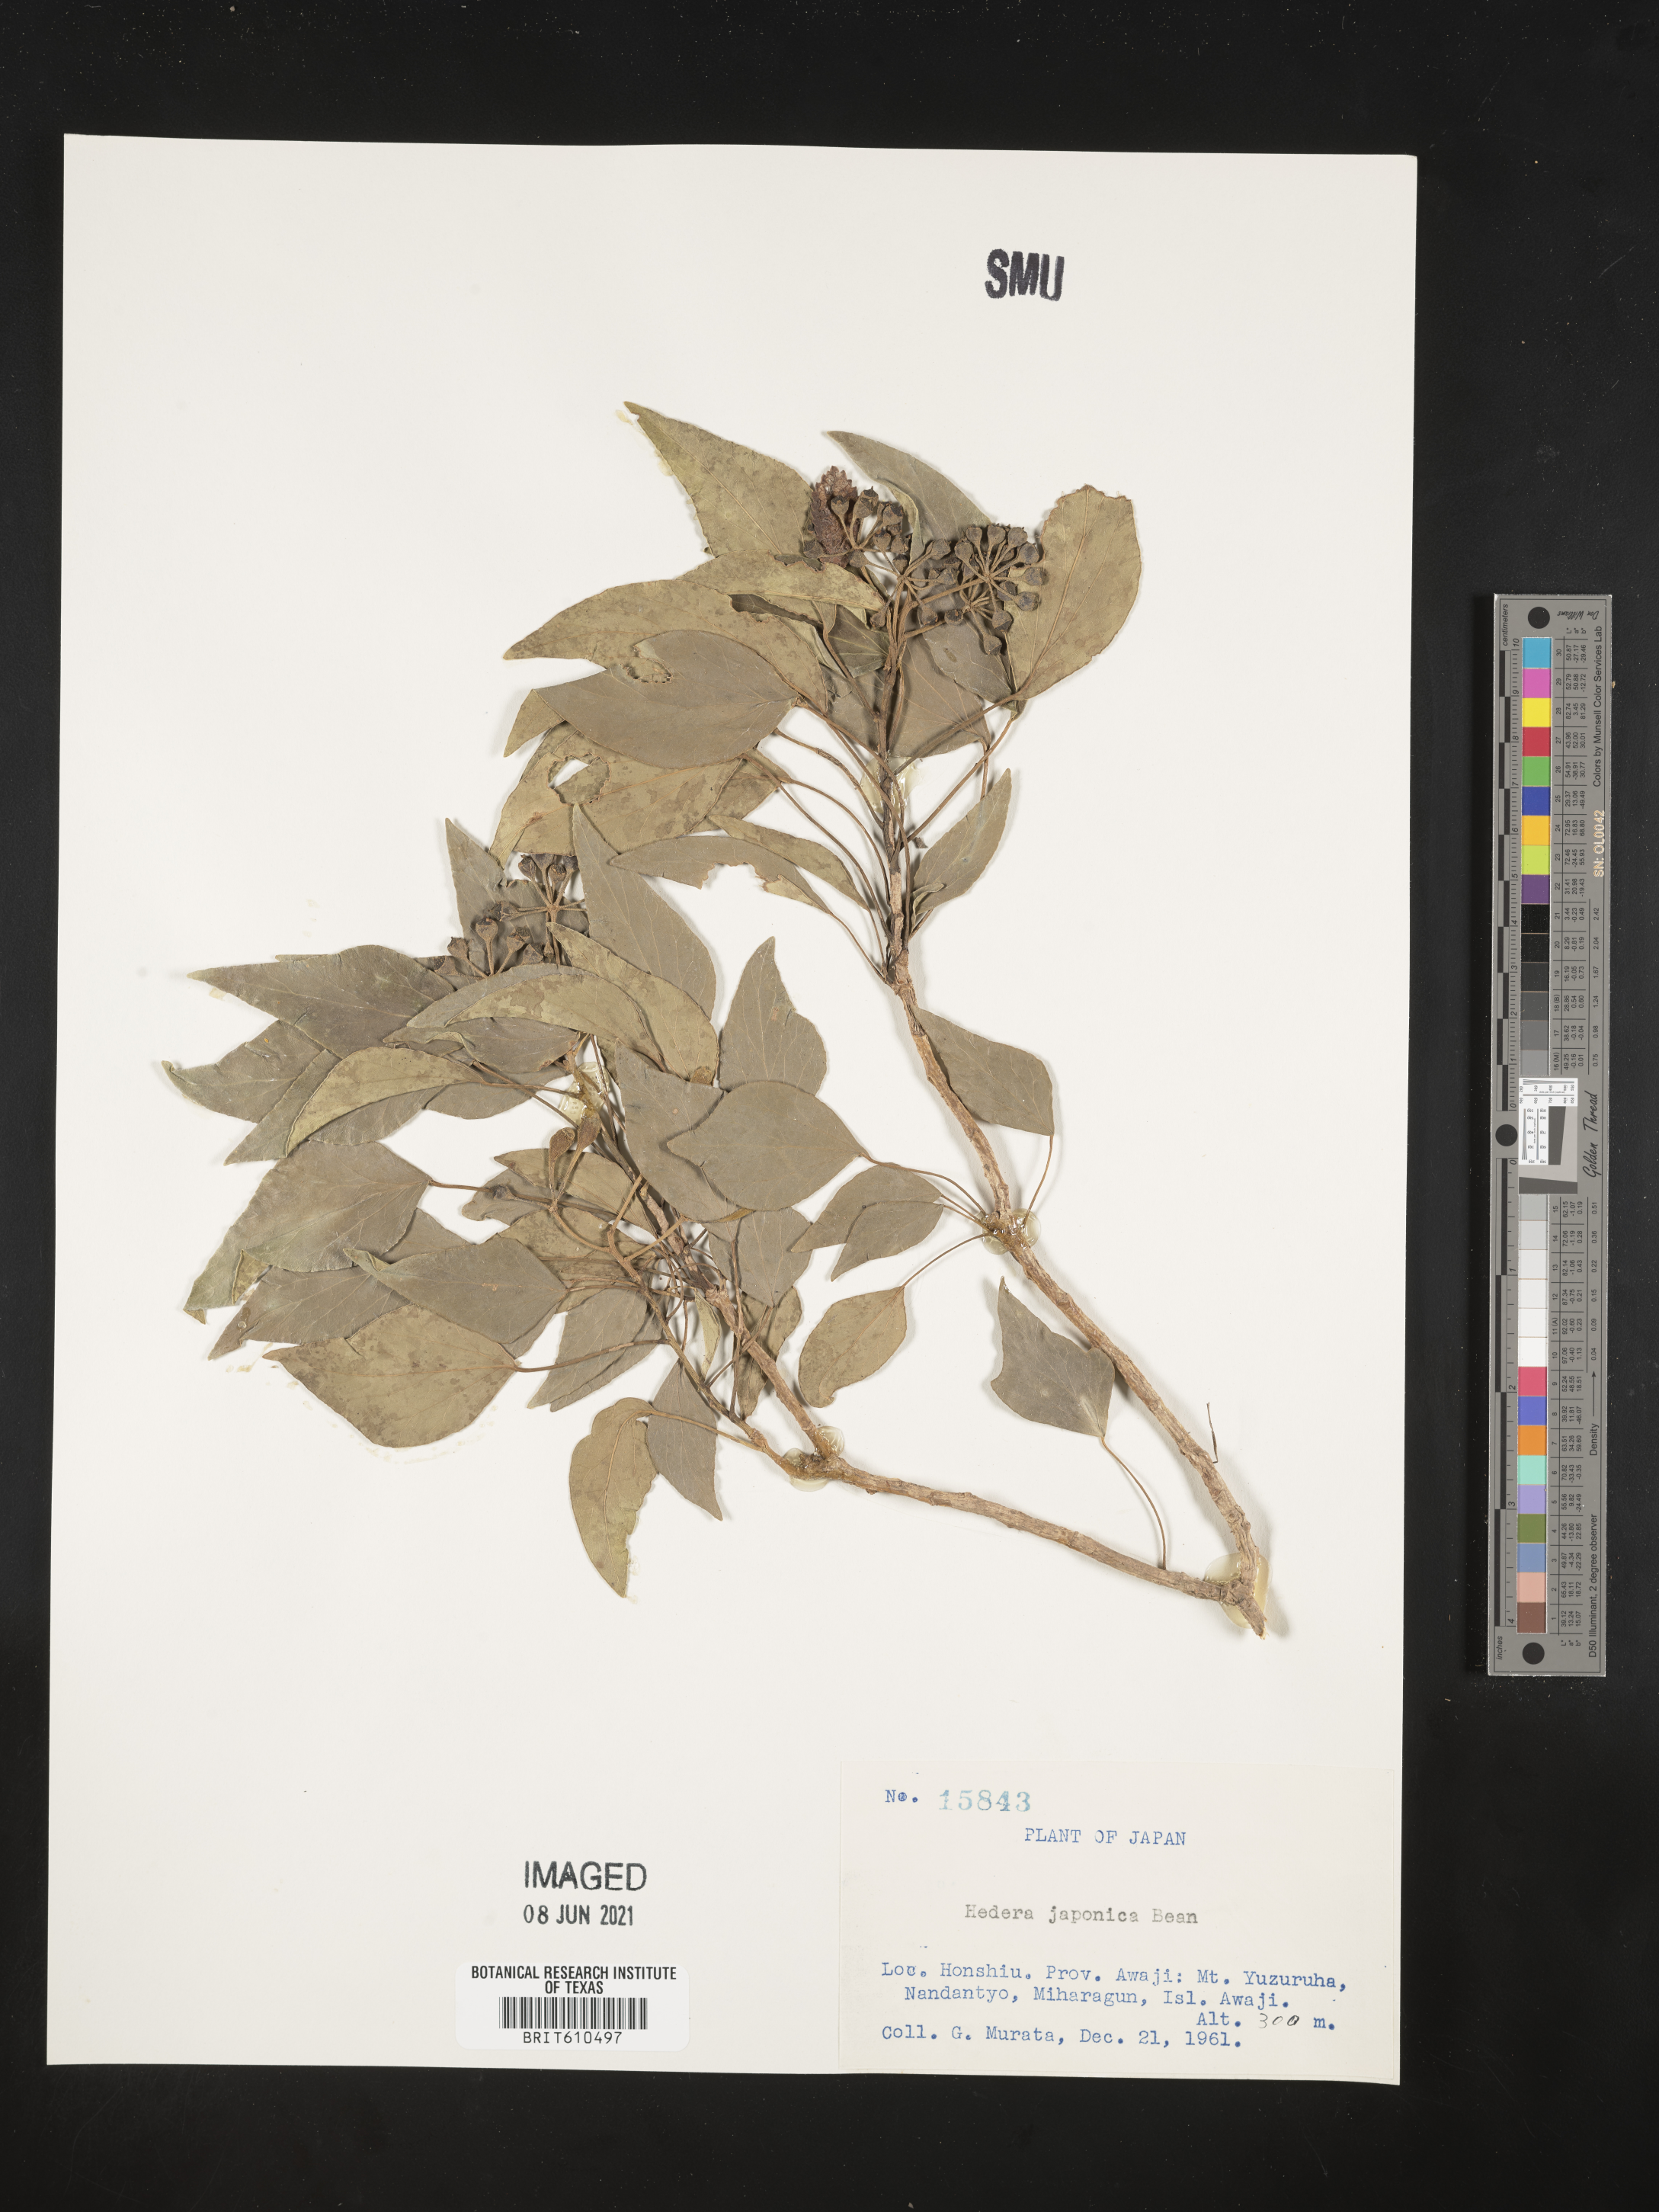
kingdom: Plantae
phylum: Tracheophyta
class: Magnoliopsida
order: Apiales
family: Araliaceae
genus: Dendropanax
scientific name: Dendropanax trifidus
